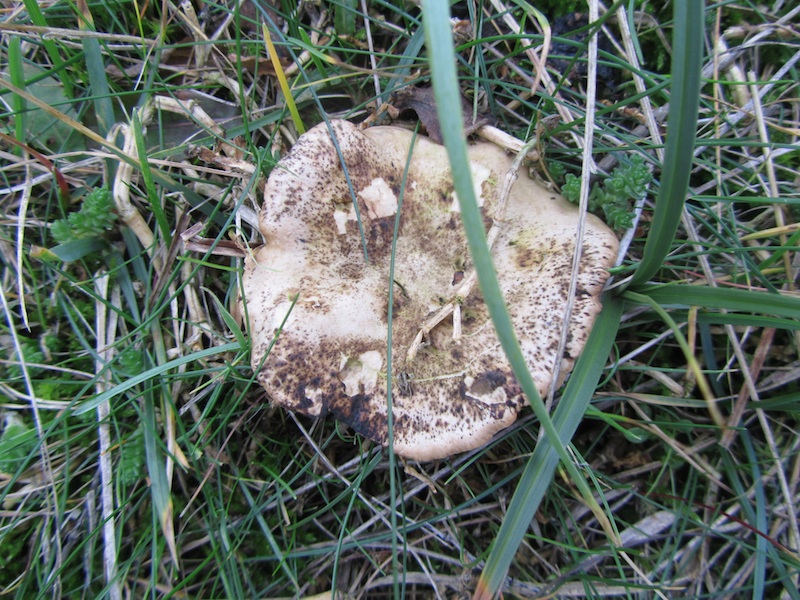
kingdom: Fungi
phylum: Basidiomycota
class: Agaricomycetes
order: Agaricales
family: Tricholomataceae
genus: Lulesia
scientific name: Lulesia
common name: sortnende troldhat
